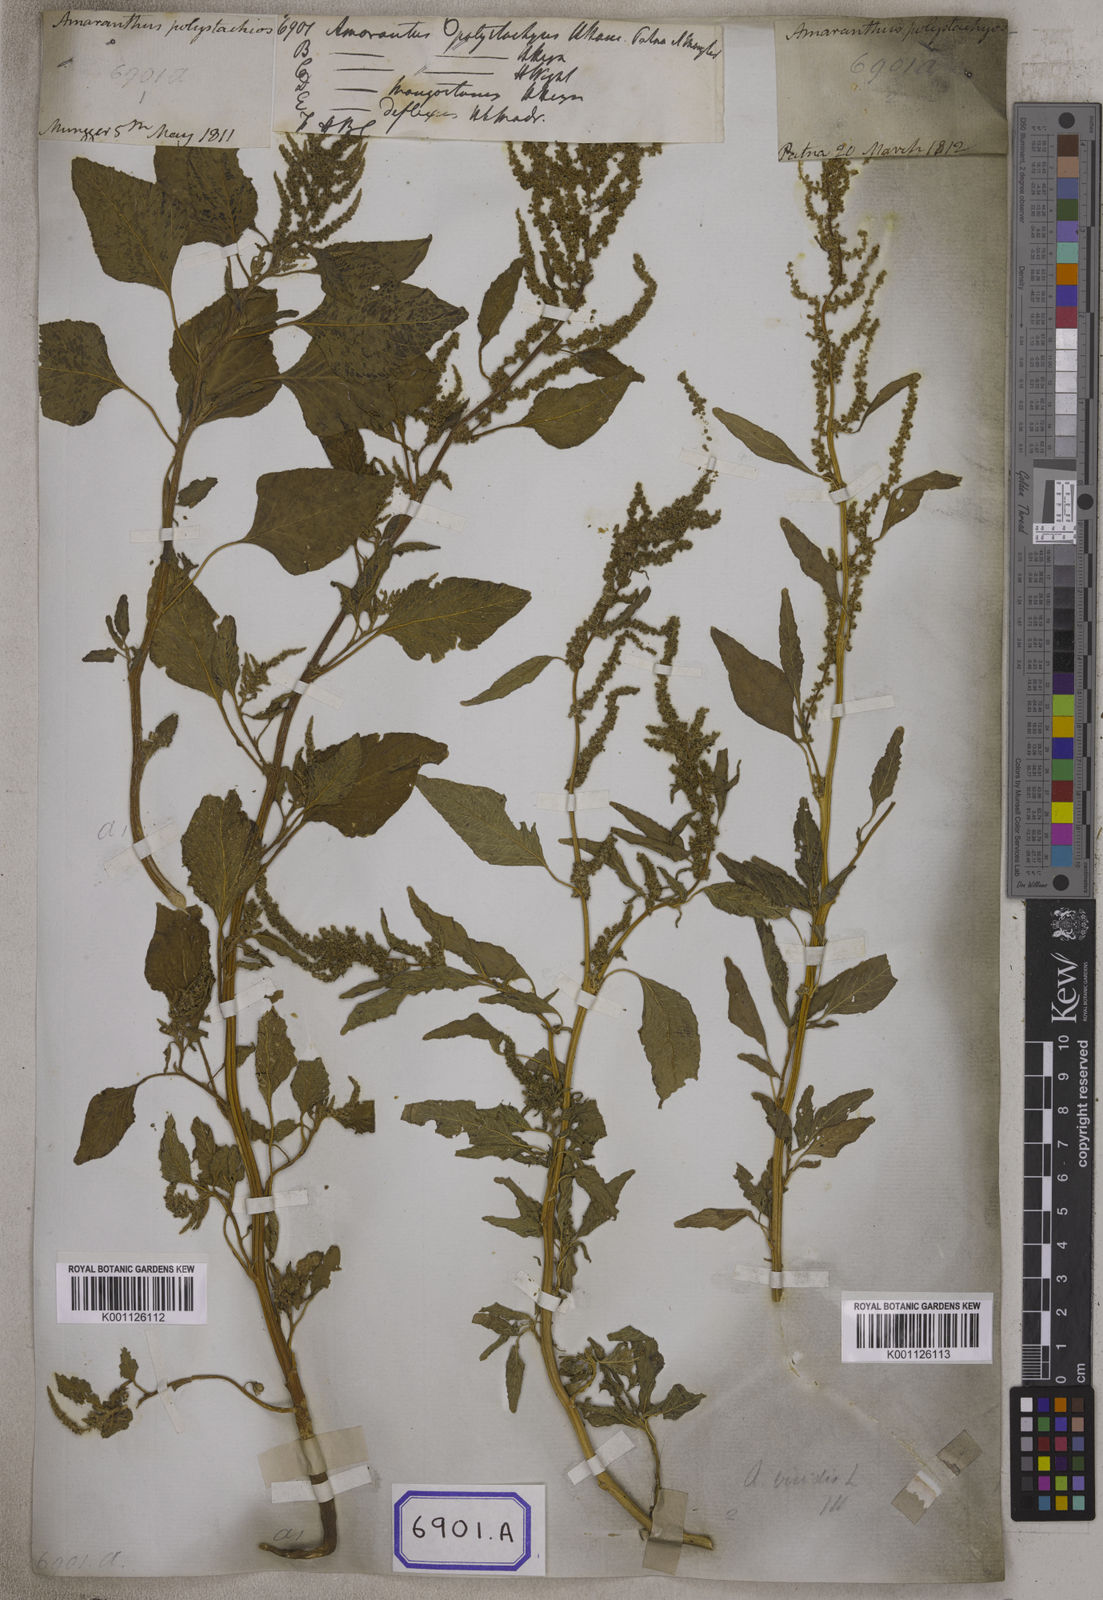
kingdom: Plantae
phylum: Tracheophyta
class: Magnoliopsida
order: Caryophyllales
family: Amaranthaceae
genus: Amaranthus
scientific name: Amaranthus
